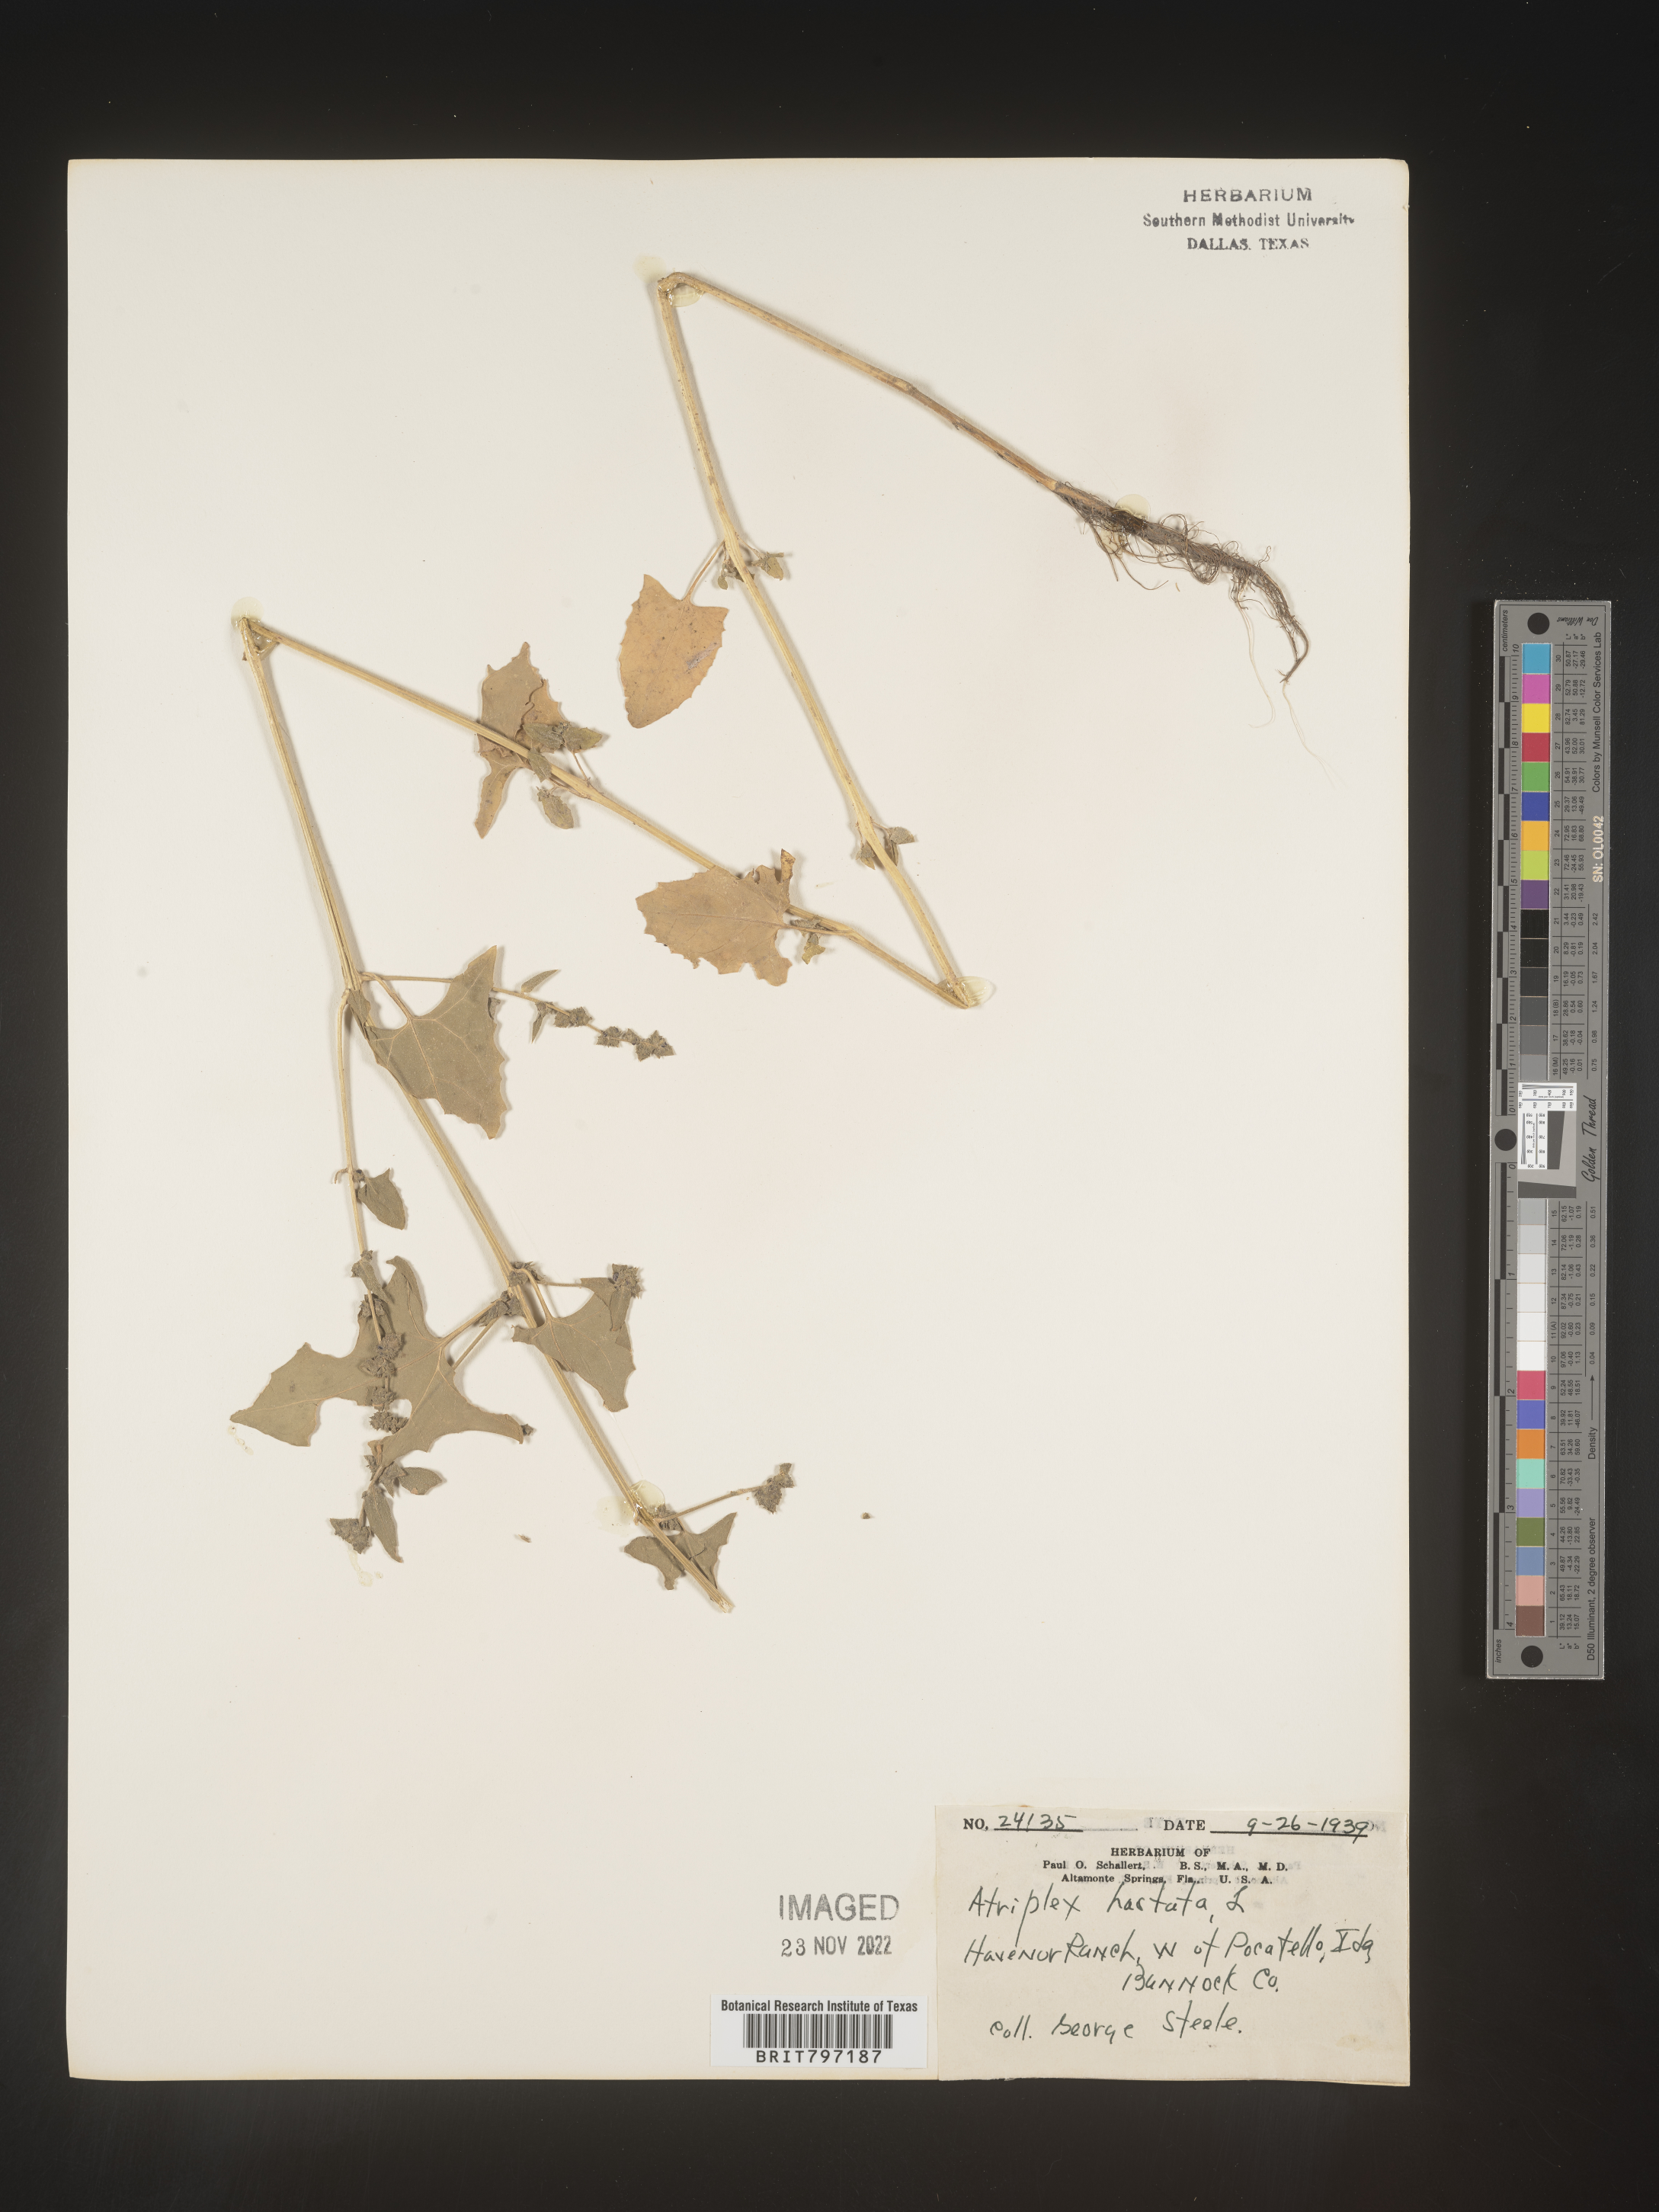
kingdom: Plantae
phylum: Tracheophyta
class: Magnoliopsida
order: Caryophyllales
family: Amaranthaceae
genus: Atriplex
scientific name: Atriplex prostrata
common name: Spear-leaved orache
